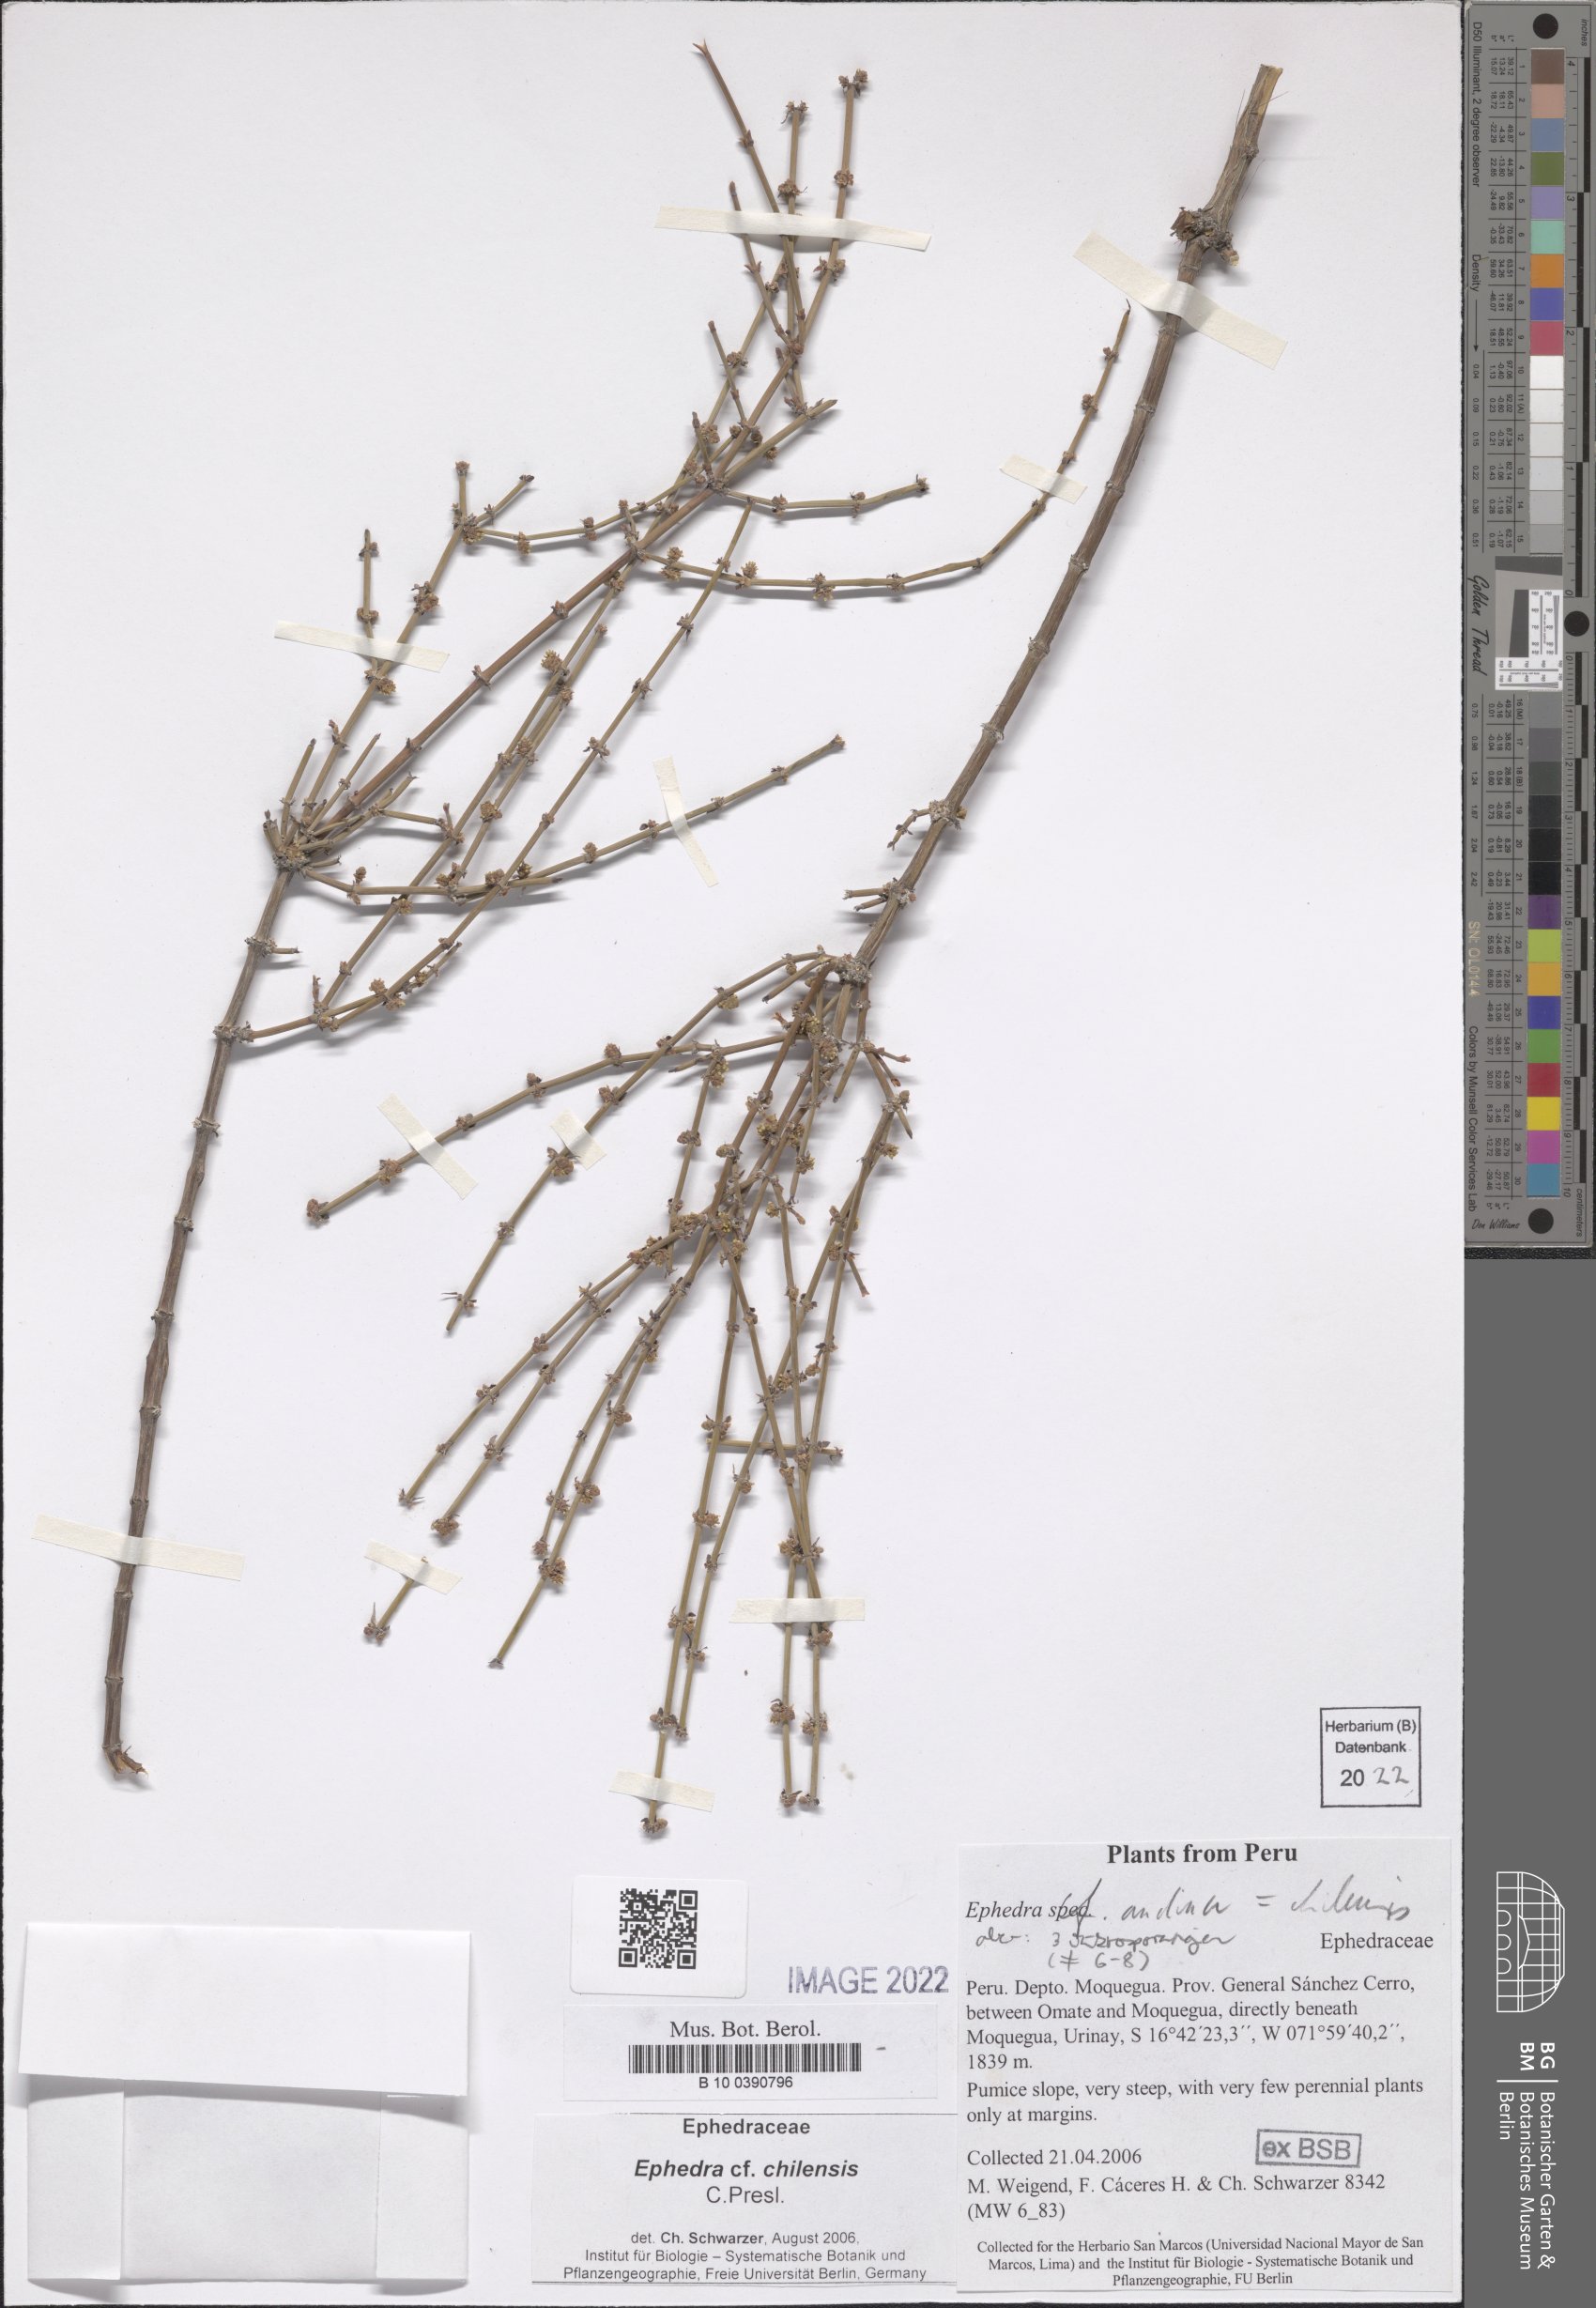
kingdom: Plantae
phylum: Tracheophyta
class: Gnetopsida
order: Ephedrales
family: Ephedraceae
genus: Ephedra
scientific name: Ephedra chilensis
